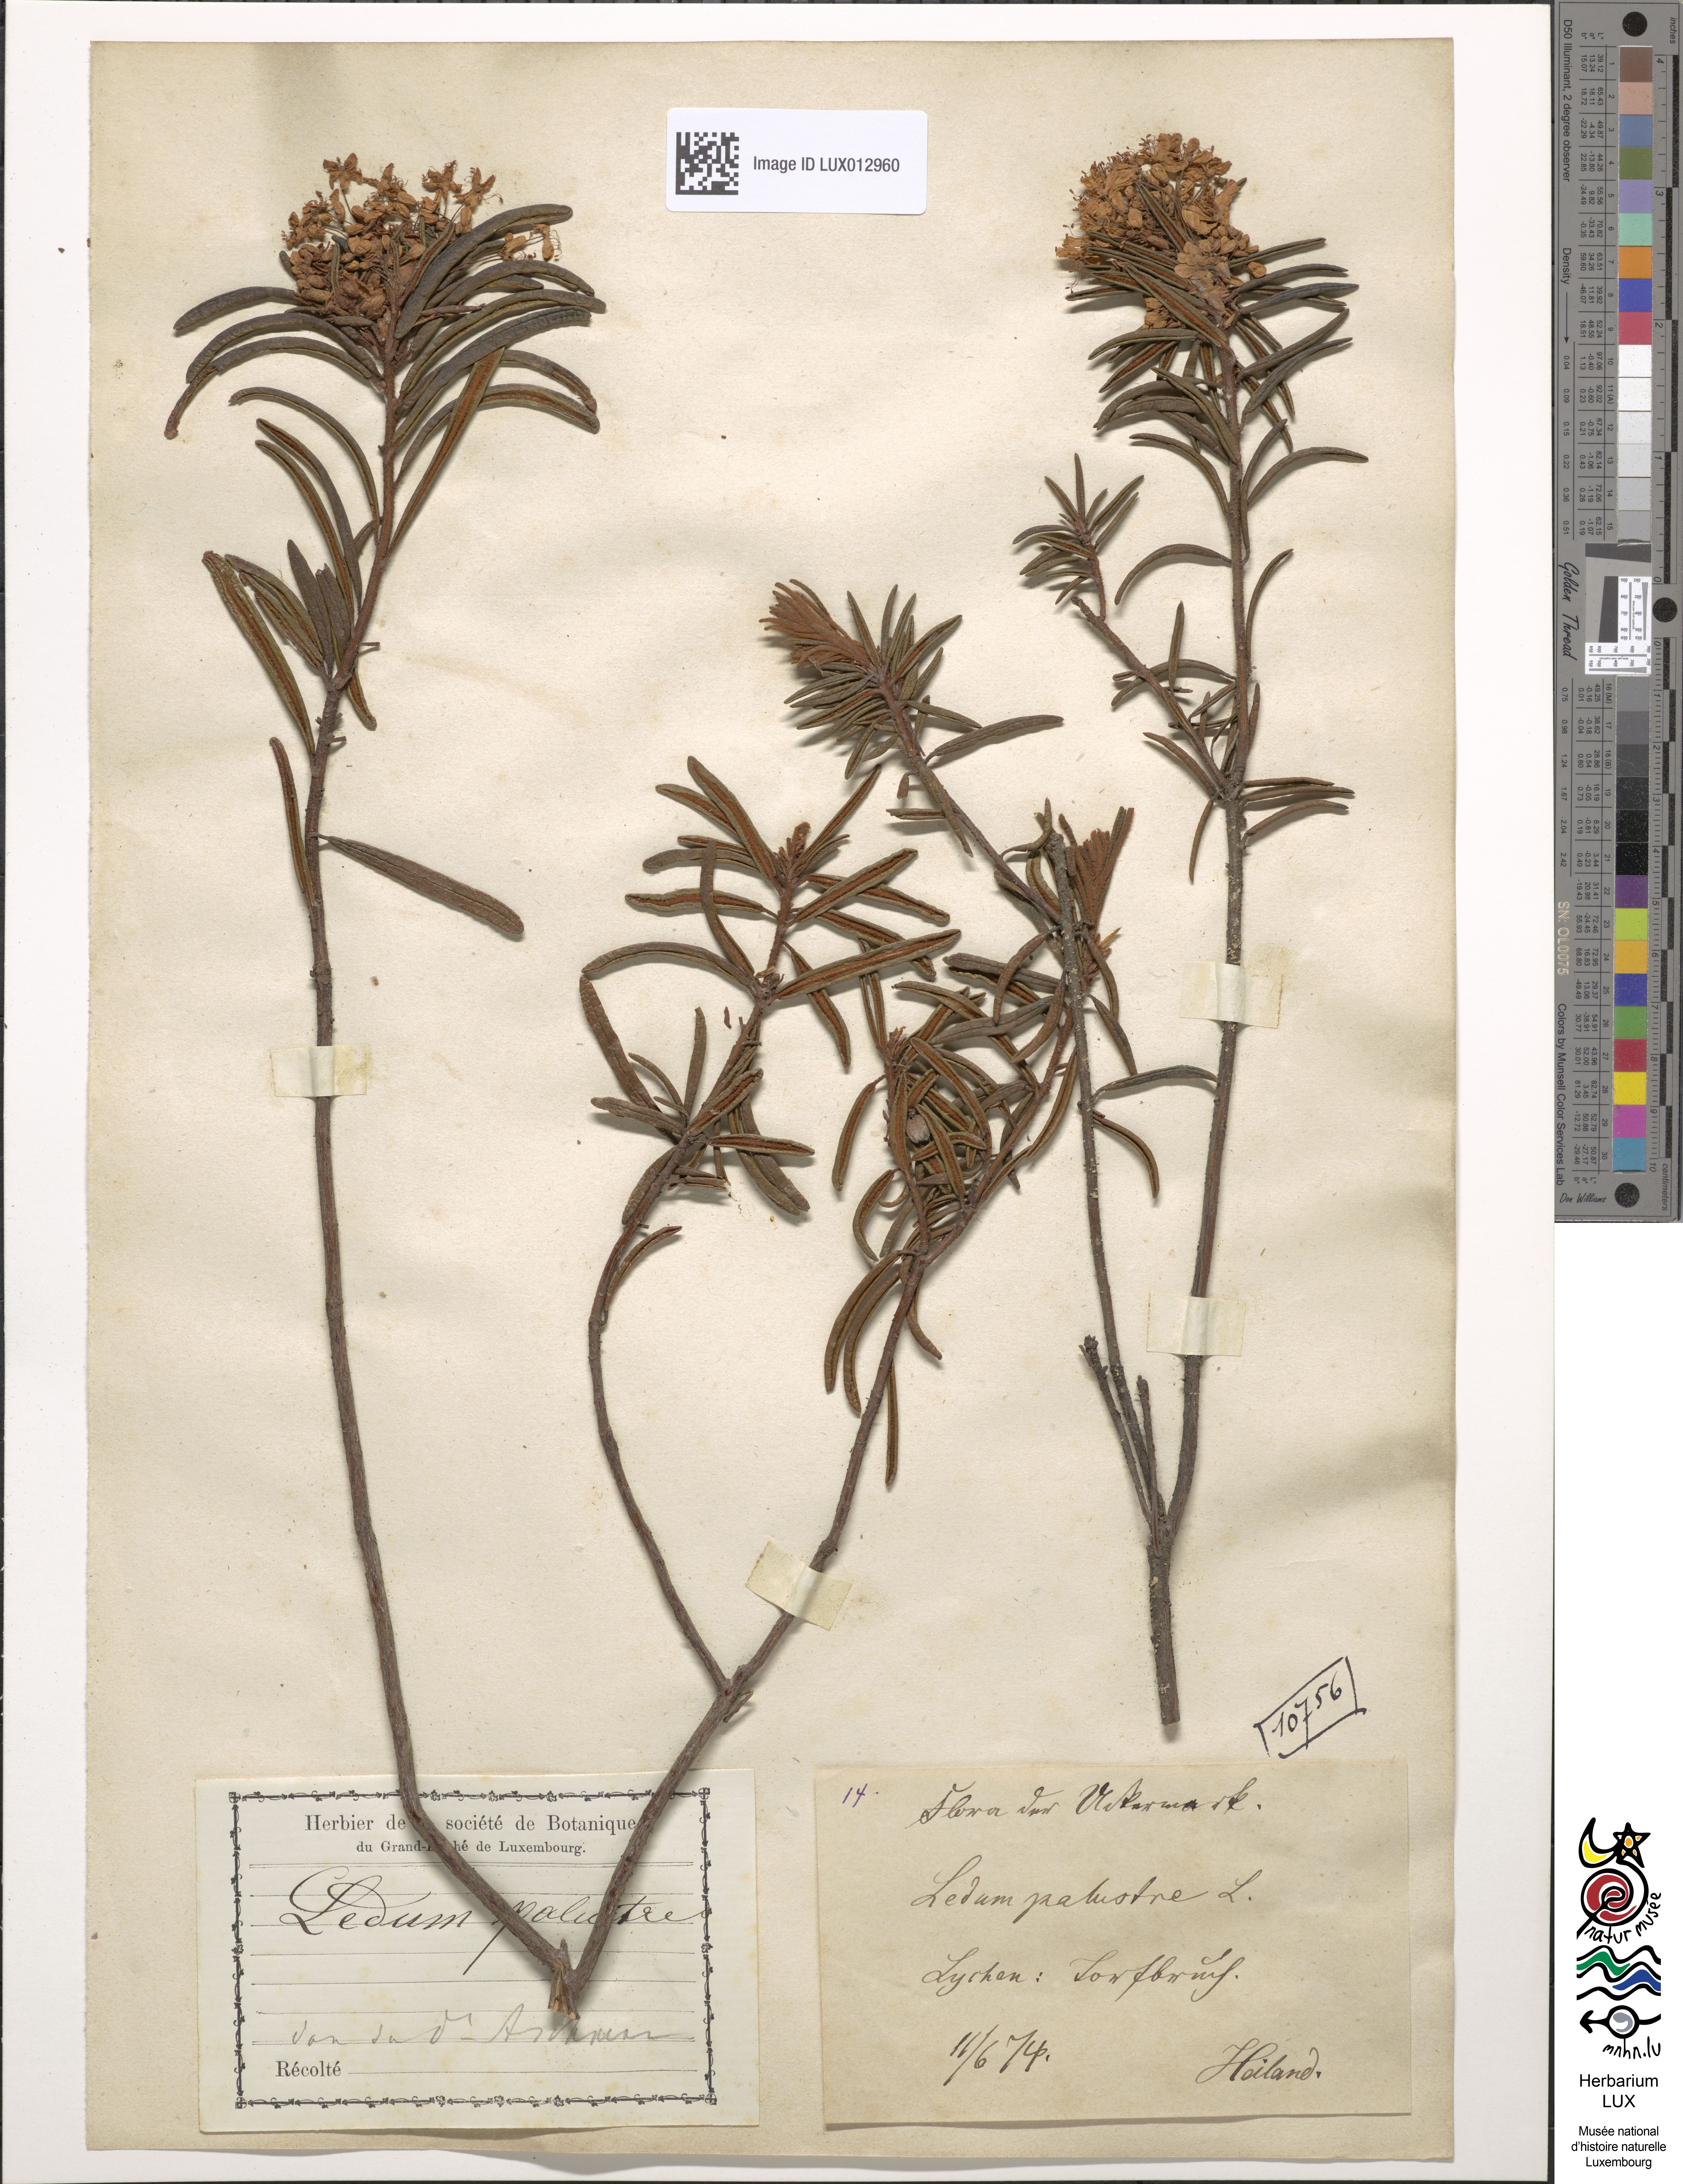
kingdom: Plantae
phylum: Tracheophyta
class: Magnoliopsida
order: Ericales
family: Ericaceae
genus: Rhododendron
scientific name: Rhododendron tomentosum
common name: Marsh labrador tea
